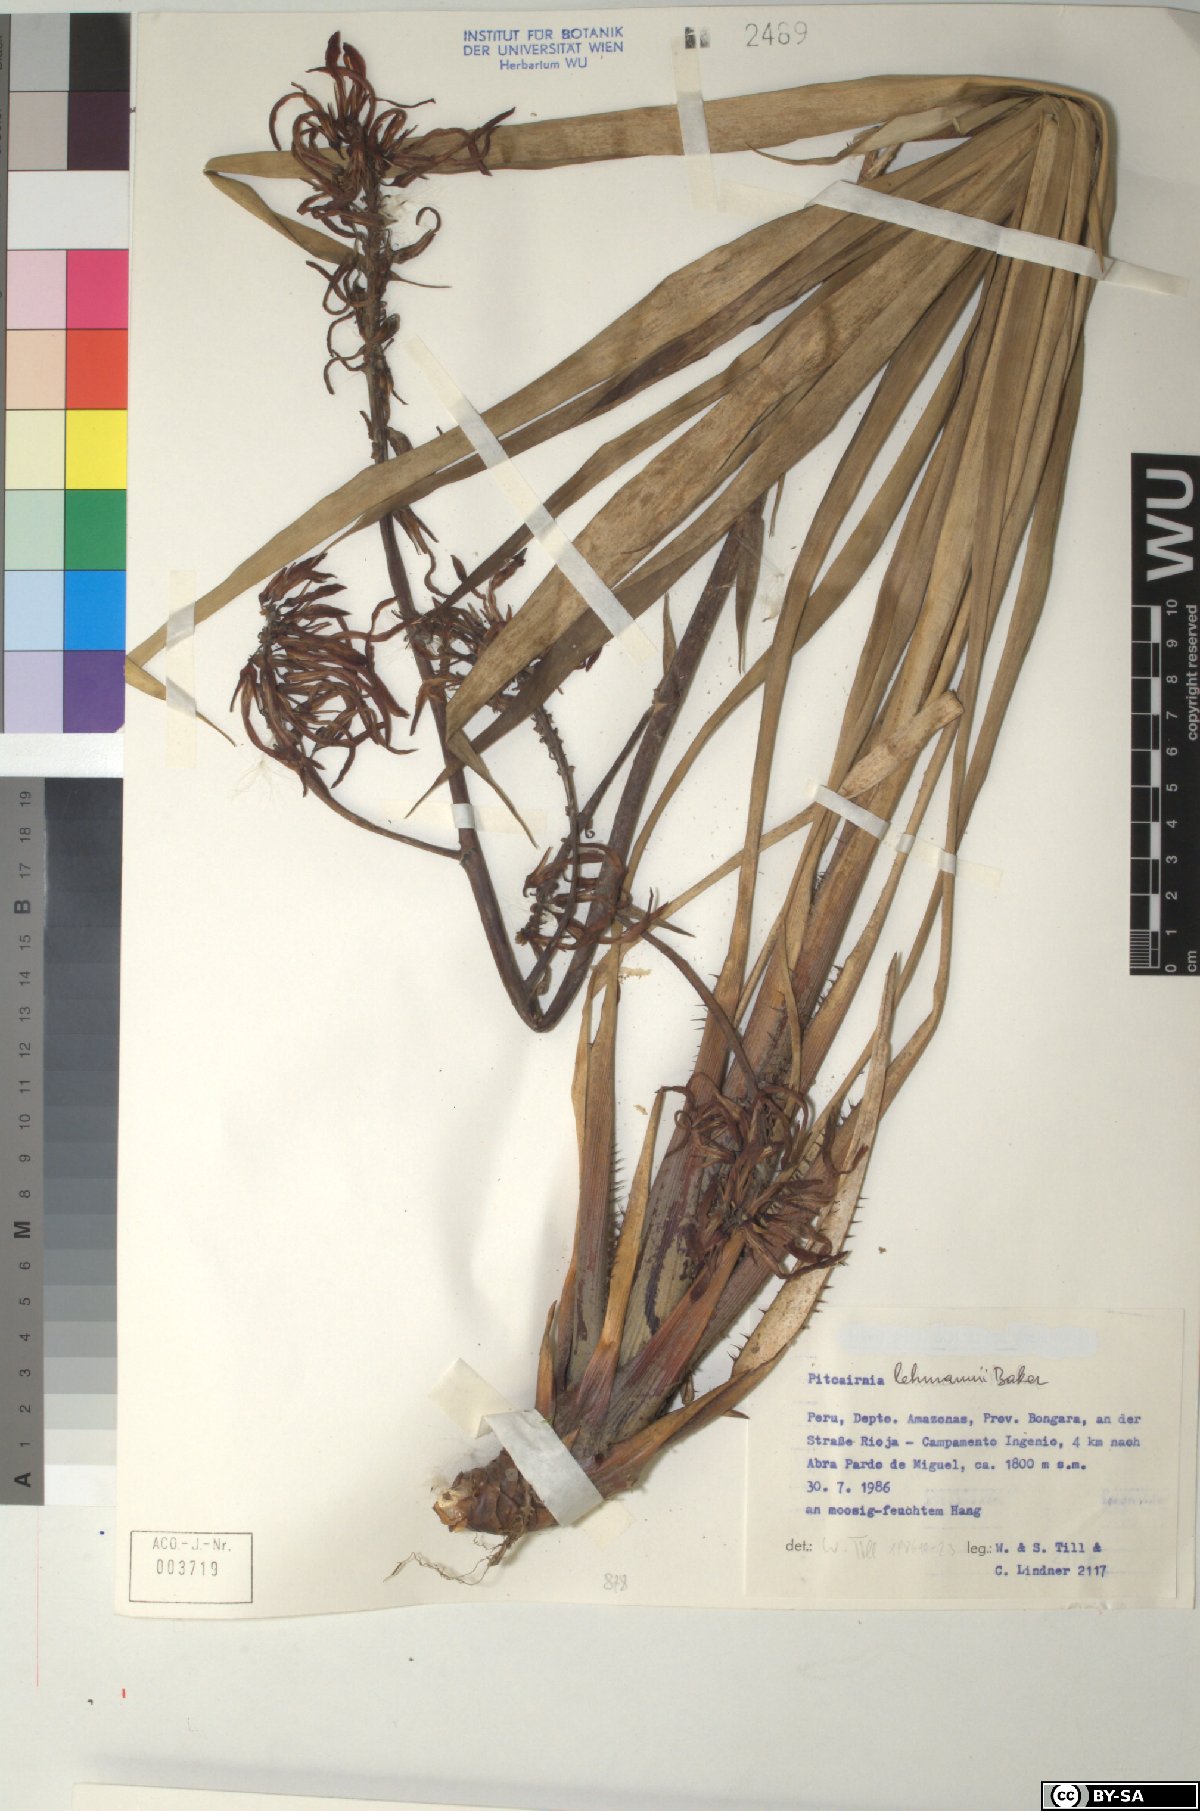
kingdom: Plantae
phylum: Tracheophyta
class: Liliopsida
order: Poales
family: Bromeliaceae
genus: Pitcairnia
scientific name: Pitcairnia lehmannii
